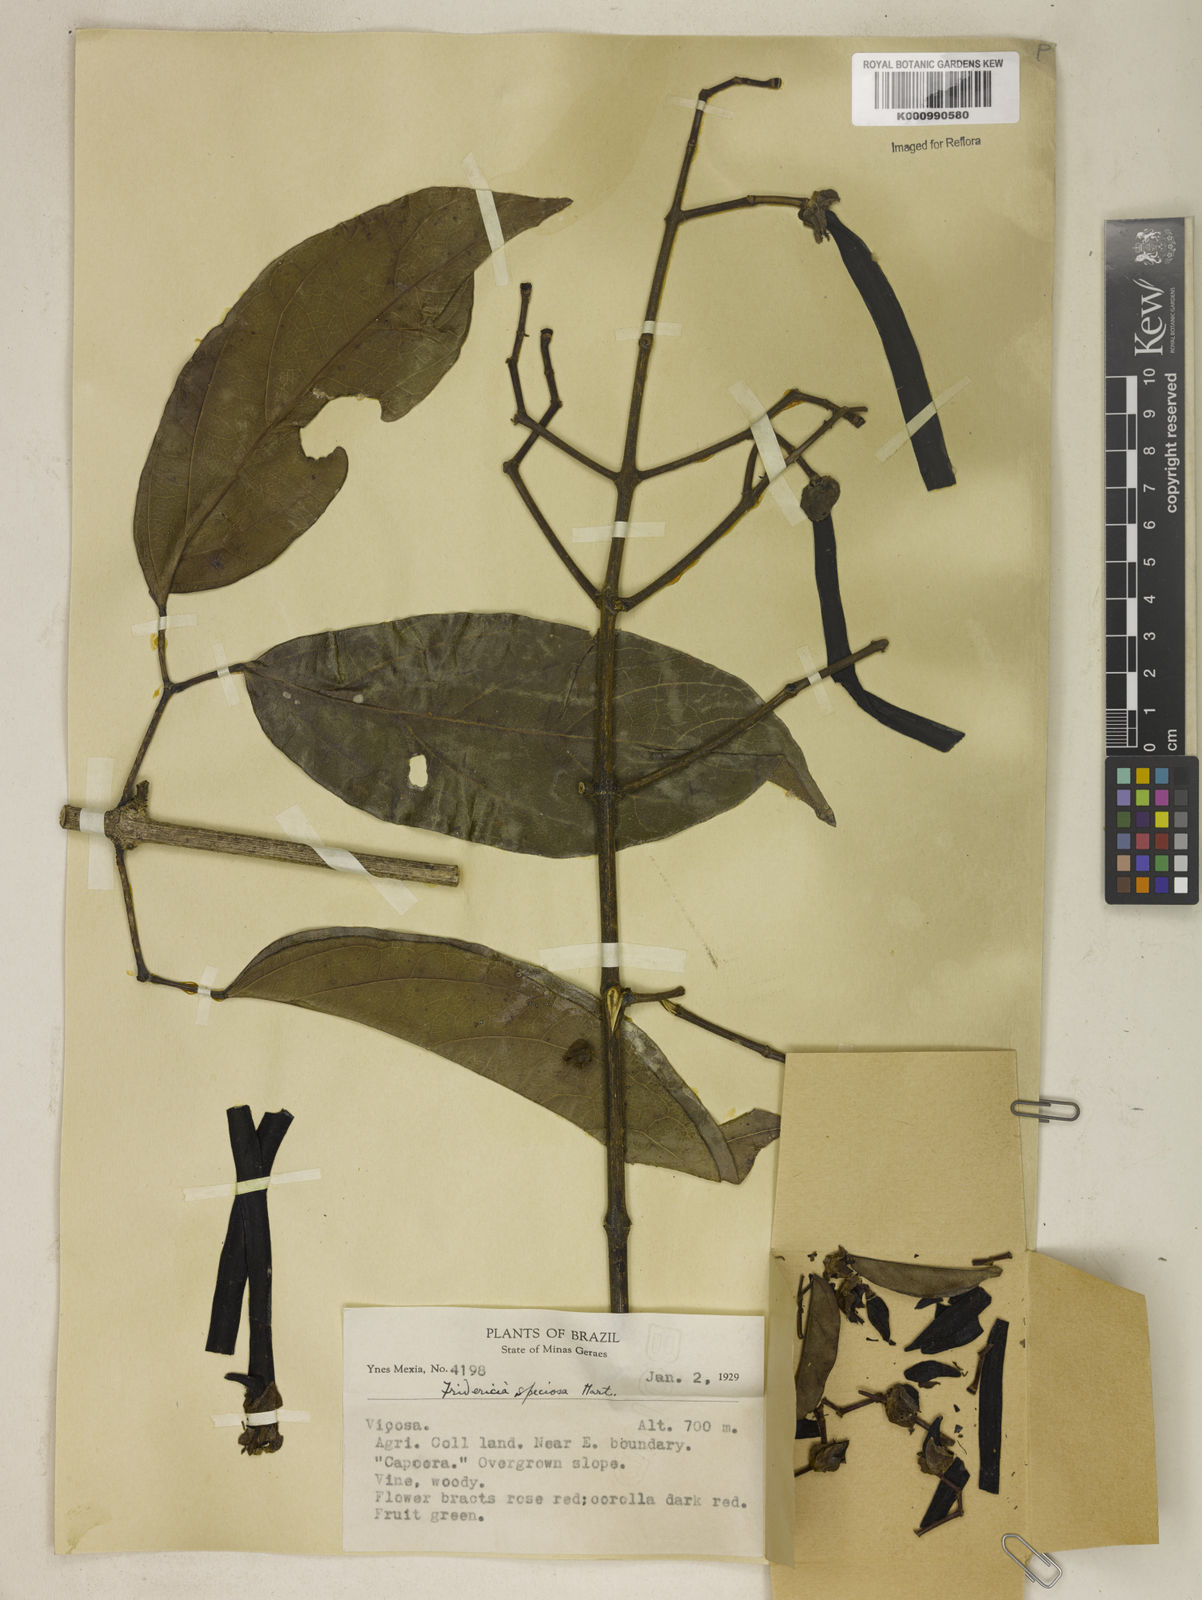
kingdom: Plantae
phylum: Tracheophyta
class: Magnoliopsida
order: Lamiales
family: Bignoniaceae
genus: Fridericia
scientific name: Fridericia speciosa
